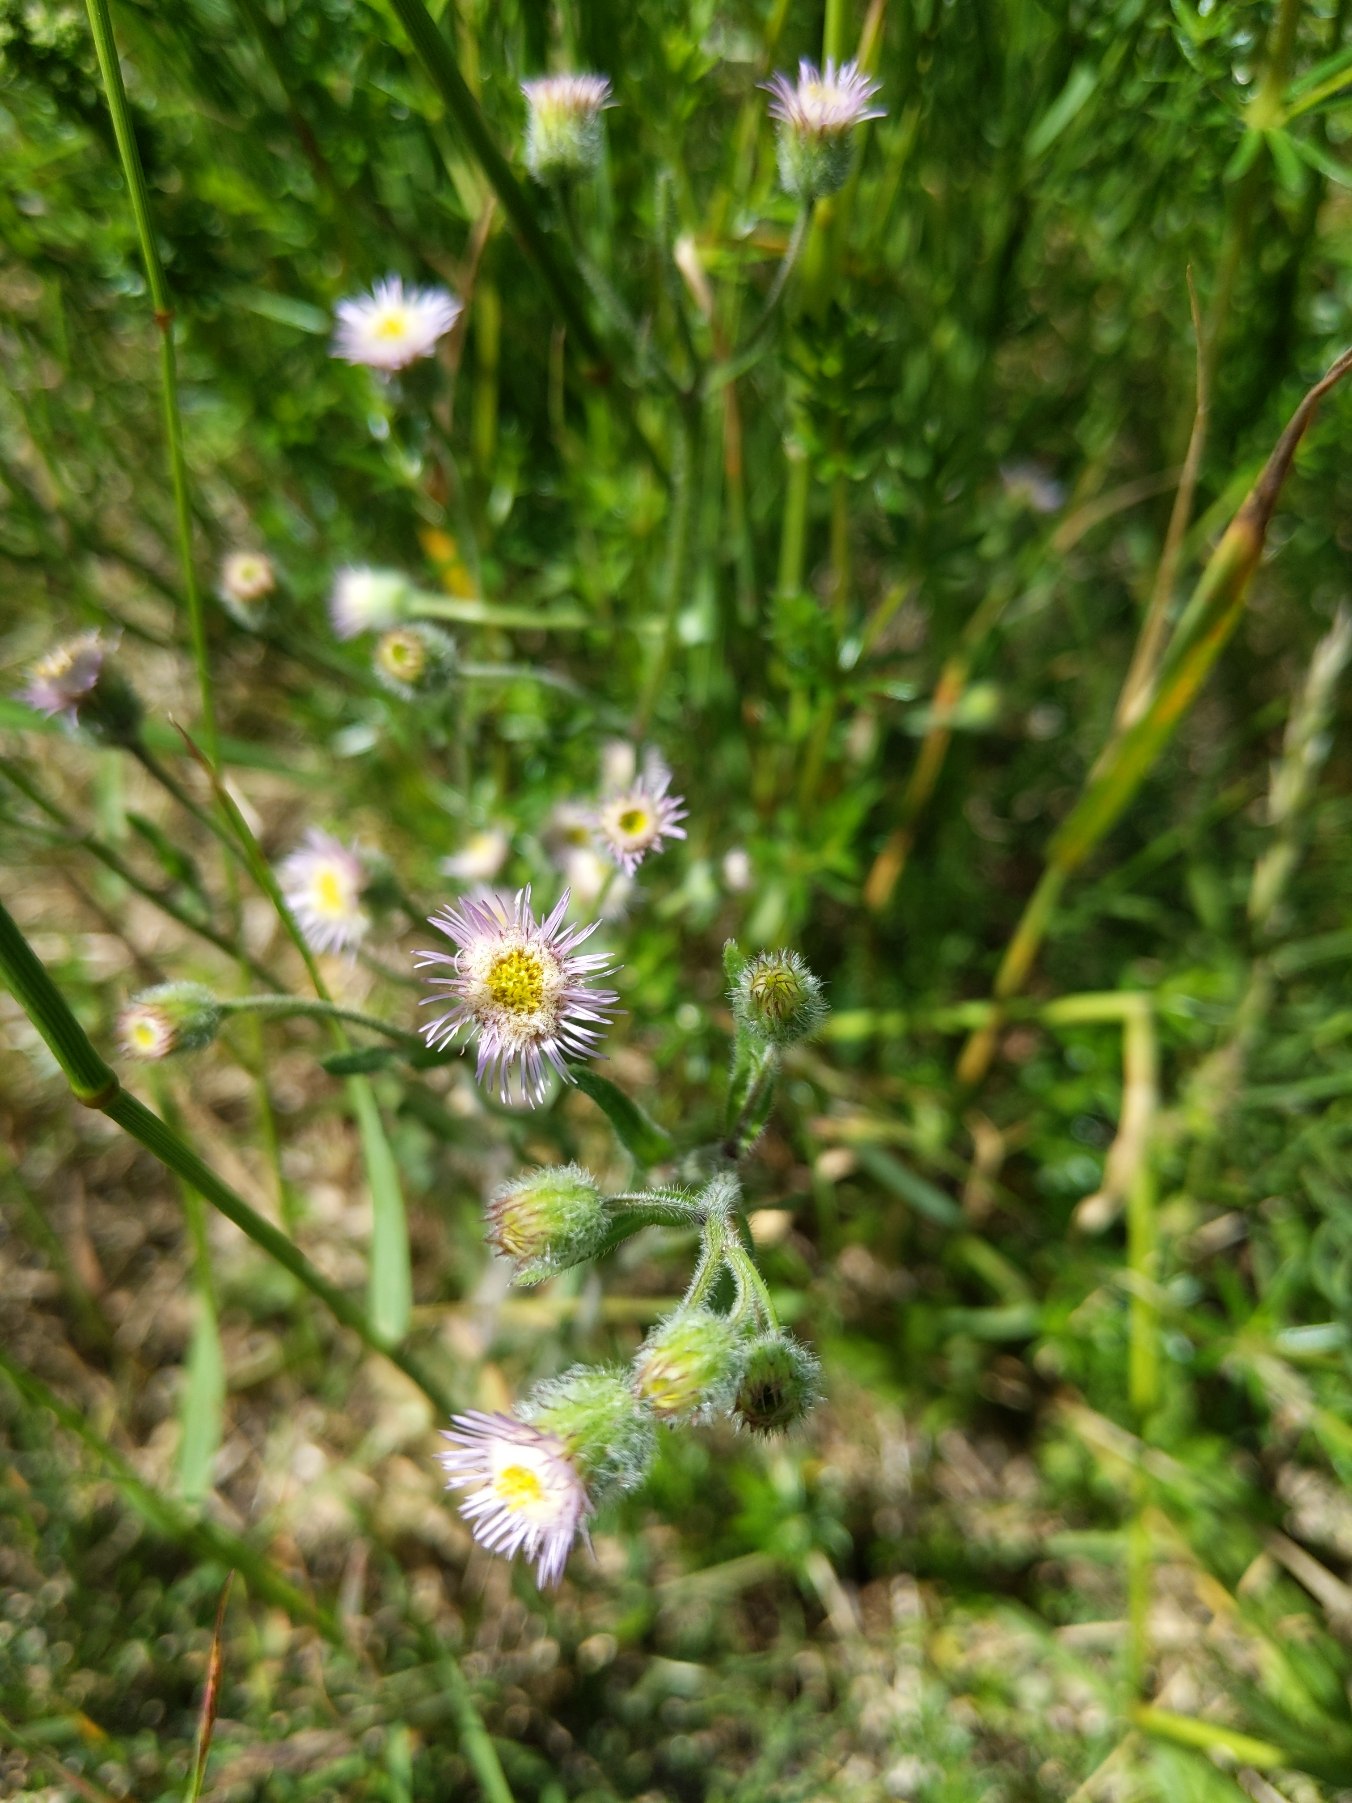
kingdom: Plantae
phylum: Tracheophyta
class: Magnoliopsida
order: Asterales
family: Asteraceae
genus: Erigeron
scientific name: Erigeron acris
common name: Bitter bakkestjerne
